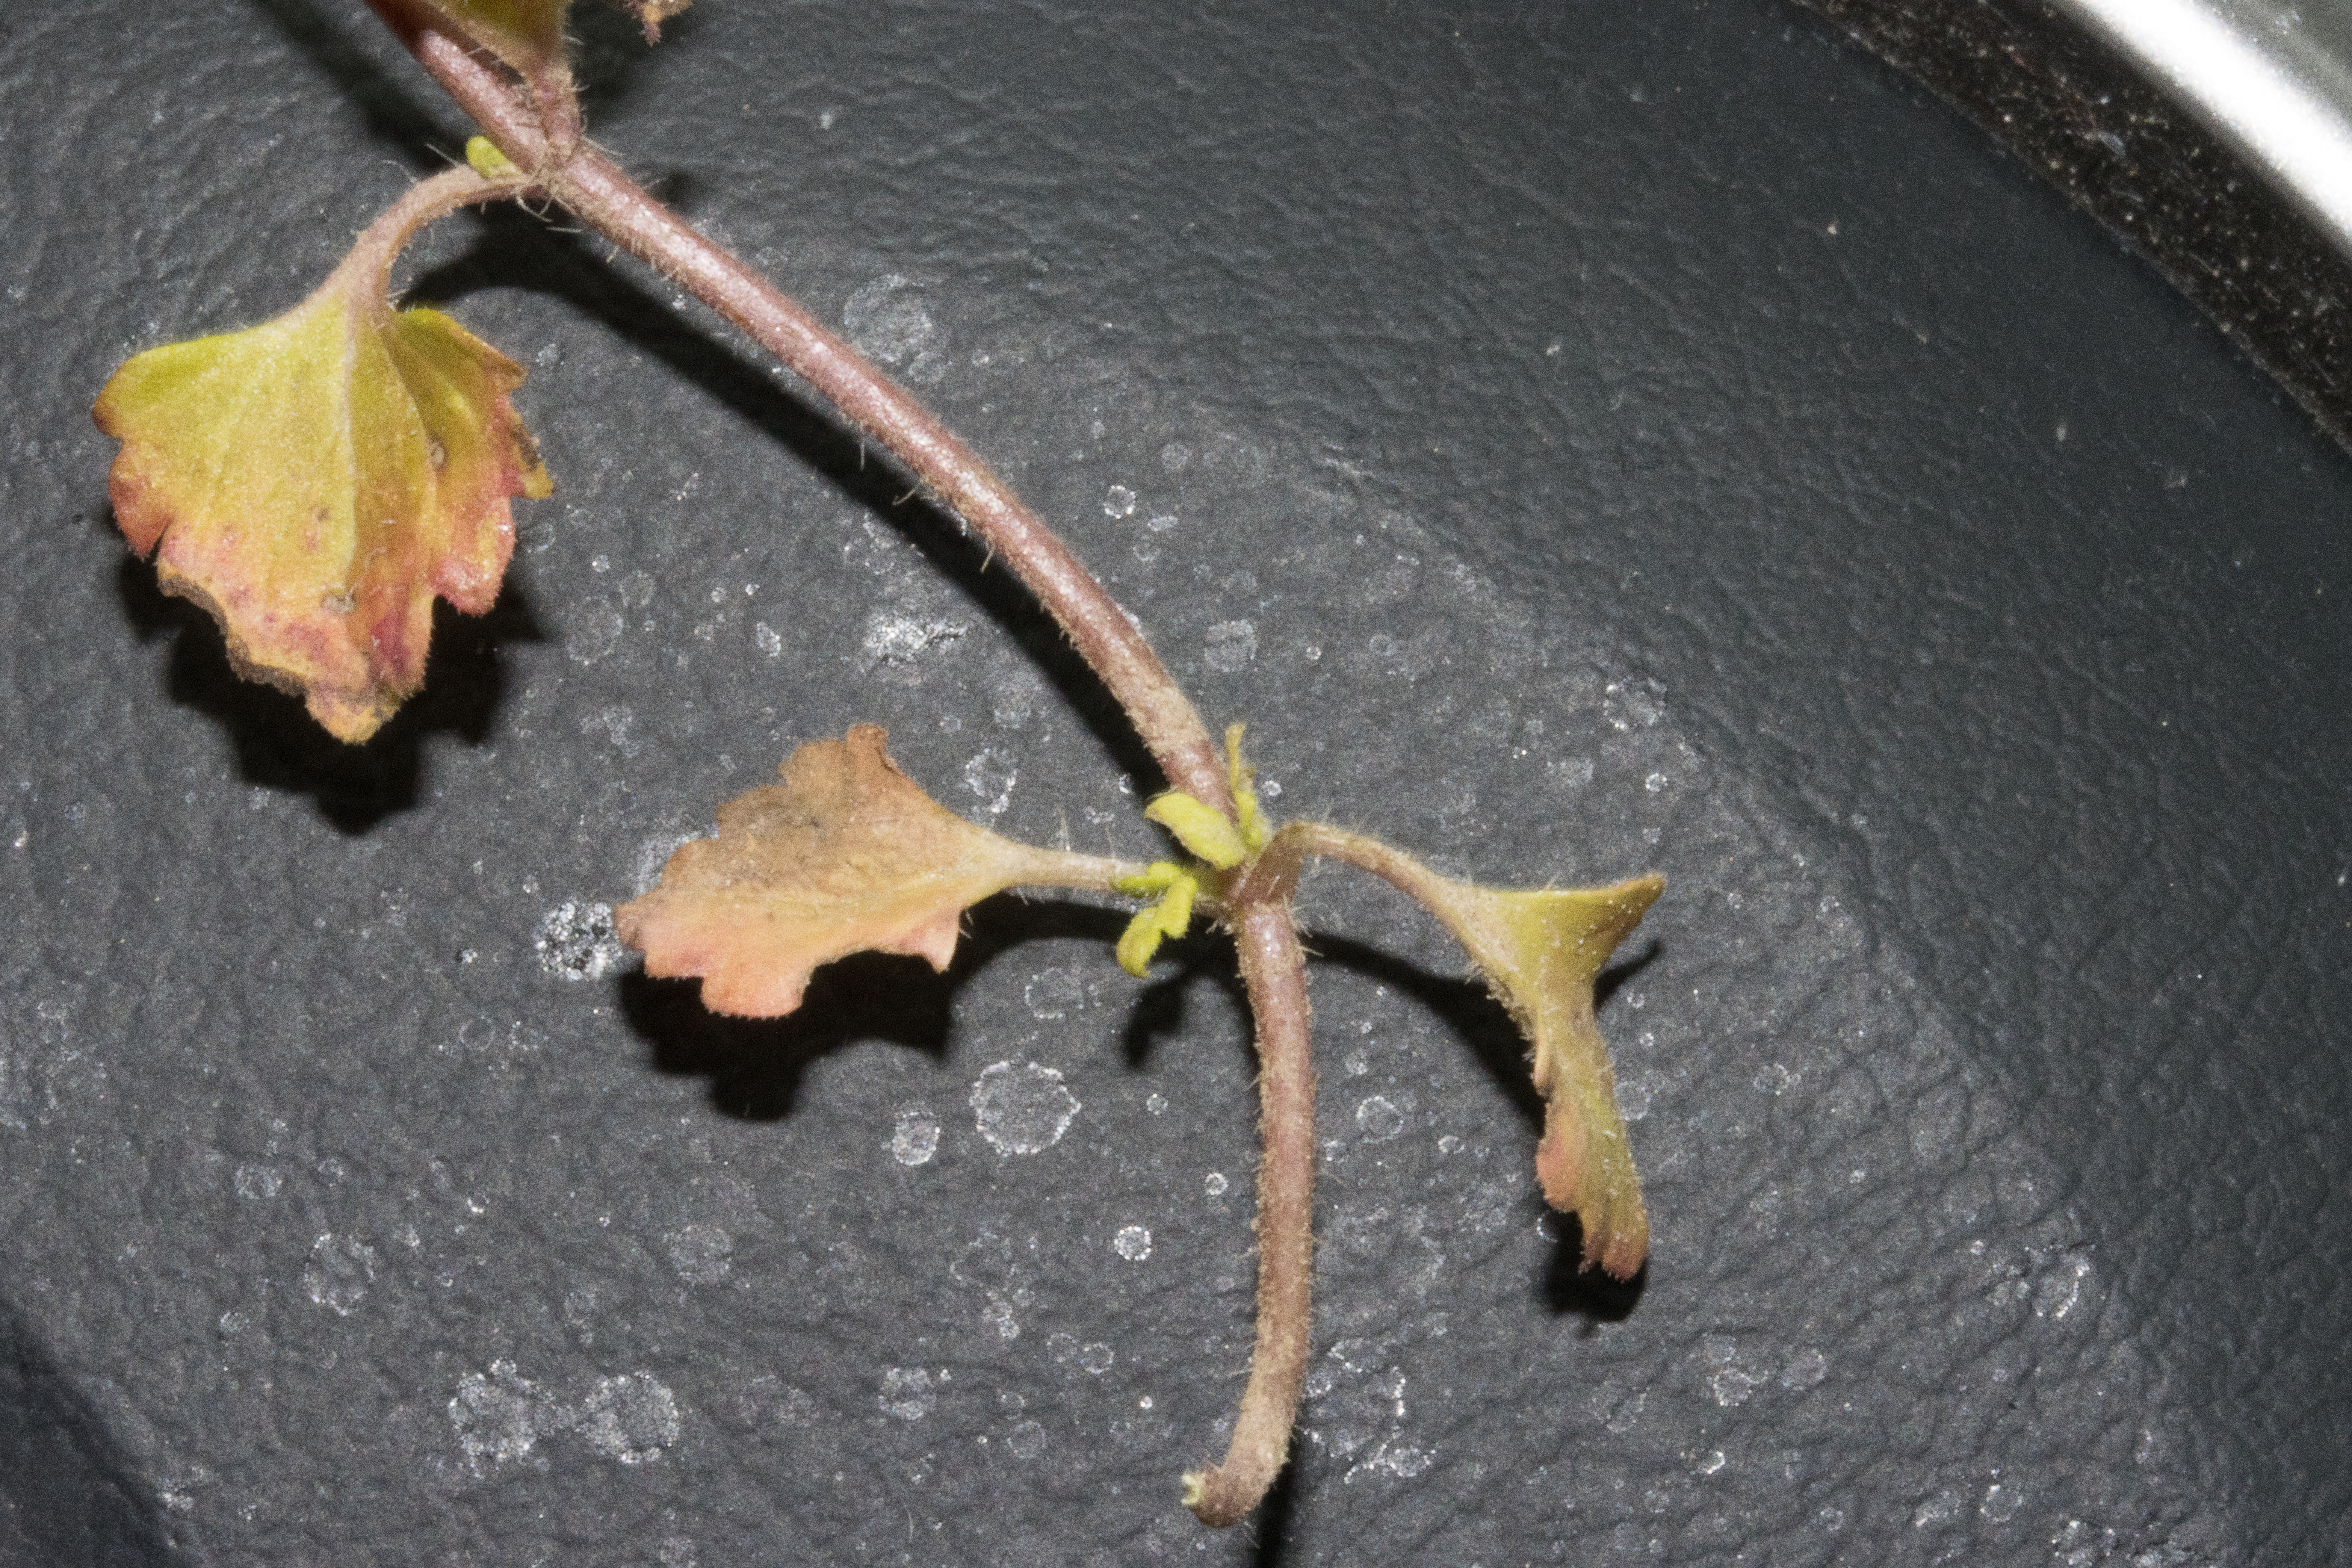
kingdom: Plantae
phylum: Tracheophyta
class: Magnoliopsida
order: Lamiales
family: Plantaginaceae
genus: Veronica
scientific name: Veronica persica
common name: Storkronet ærenpris
